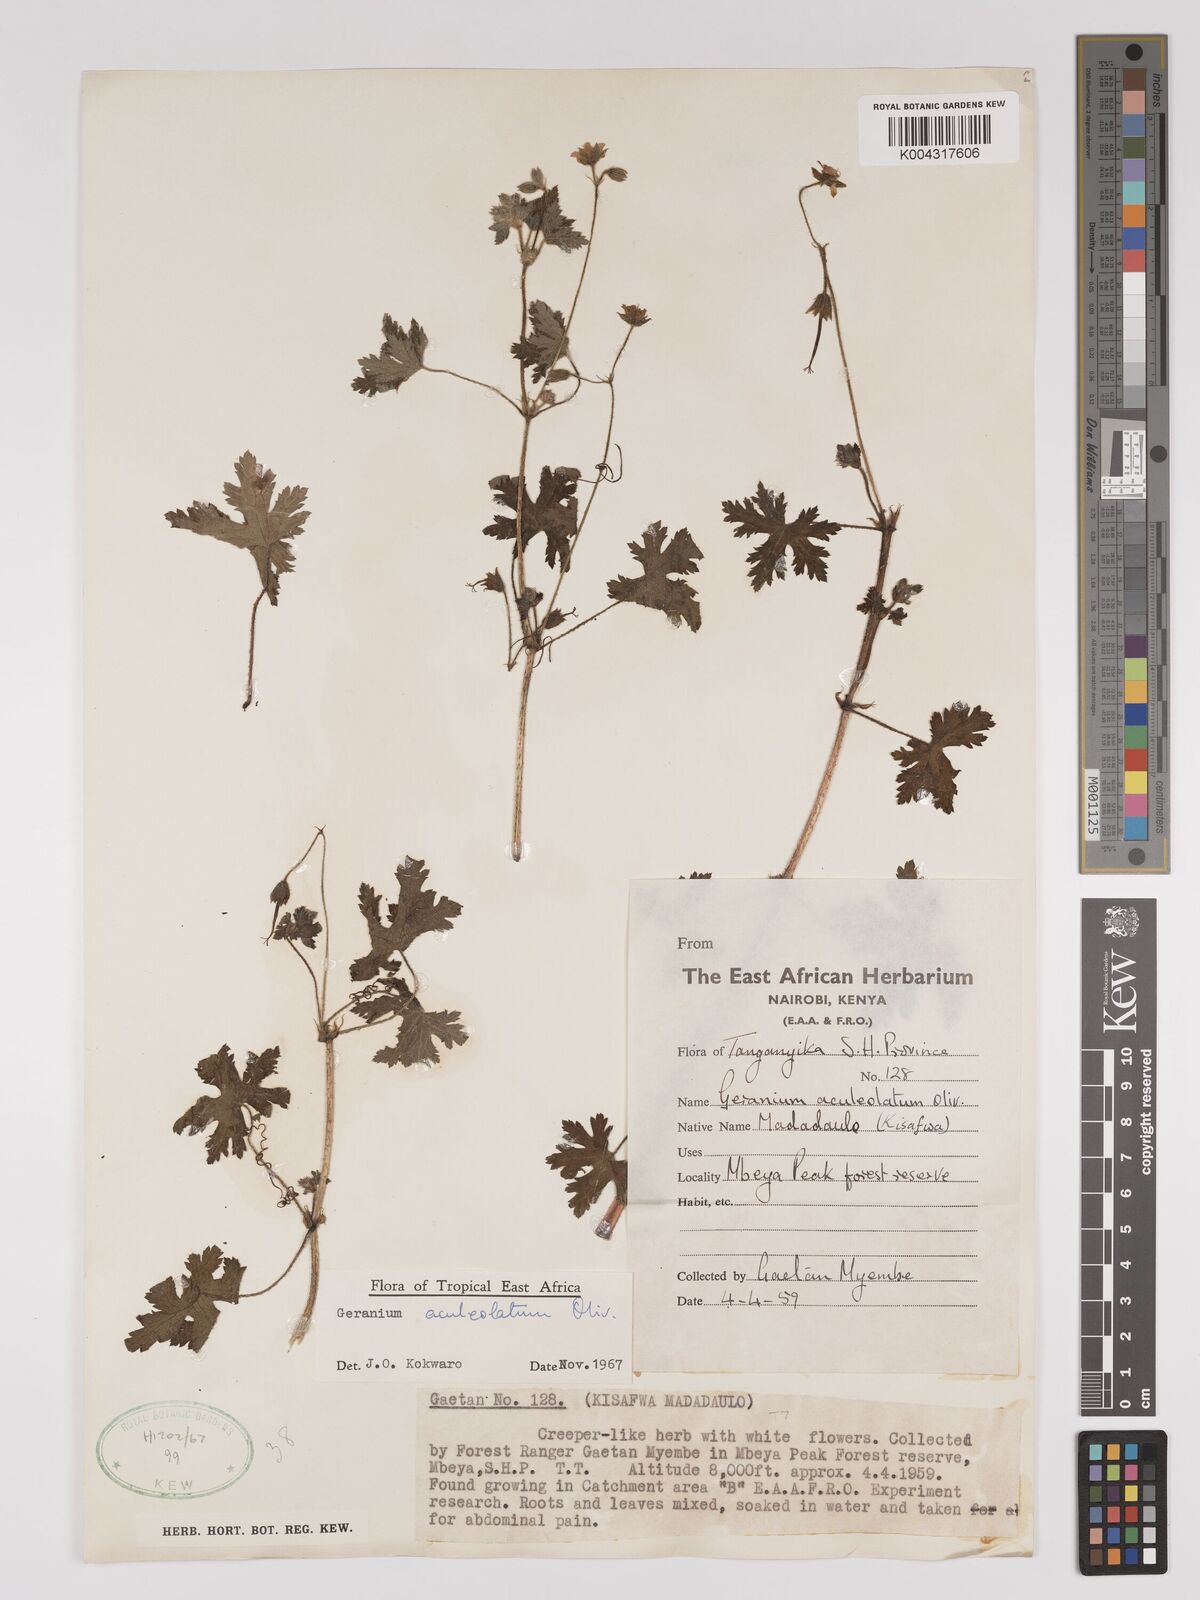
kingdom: Plantae
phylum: Tracheophyta
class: Magnoliopsida
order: Geraniales
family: Geraniaceae
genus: Geranium
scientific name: Geranium aculeolatum
